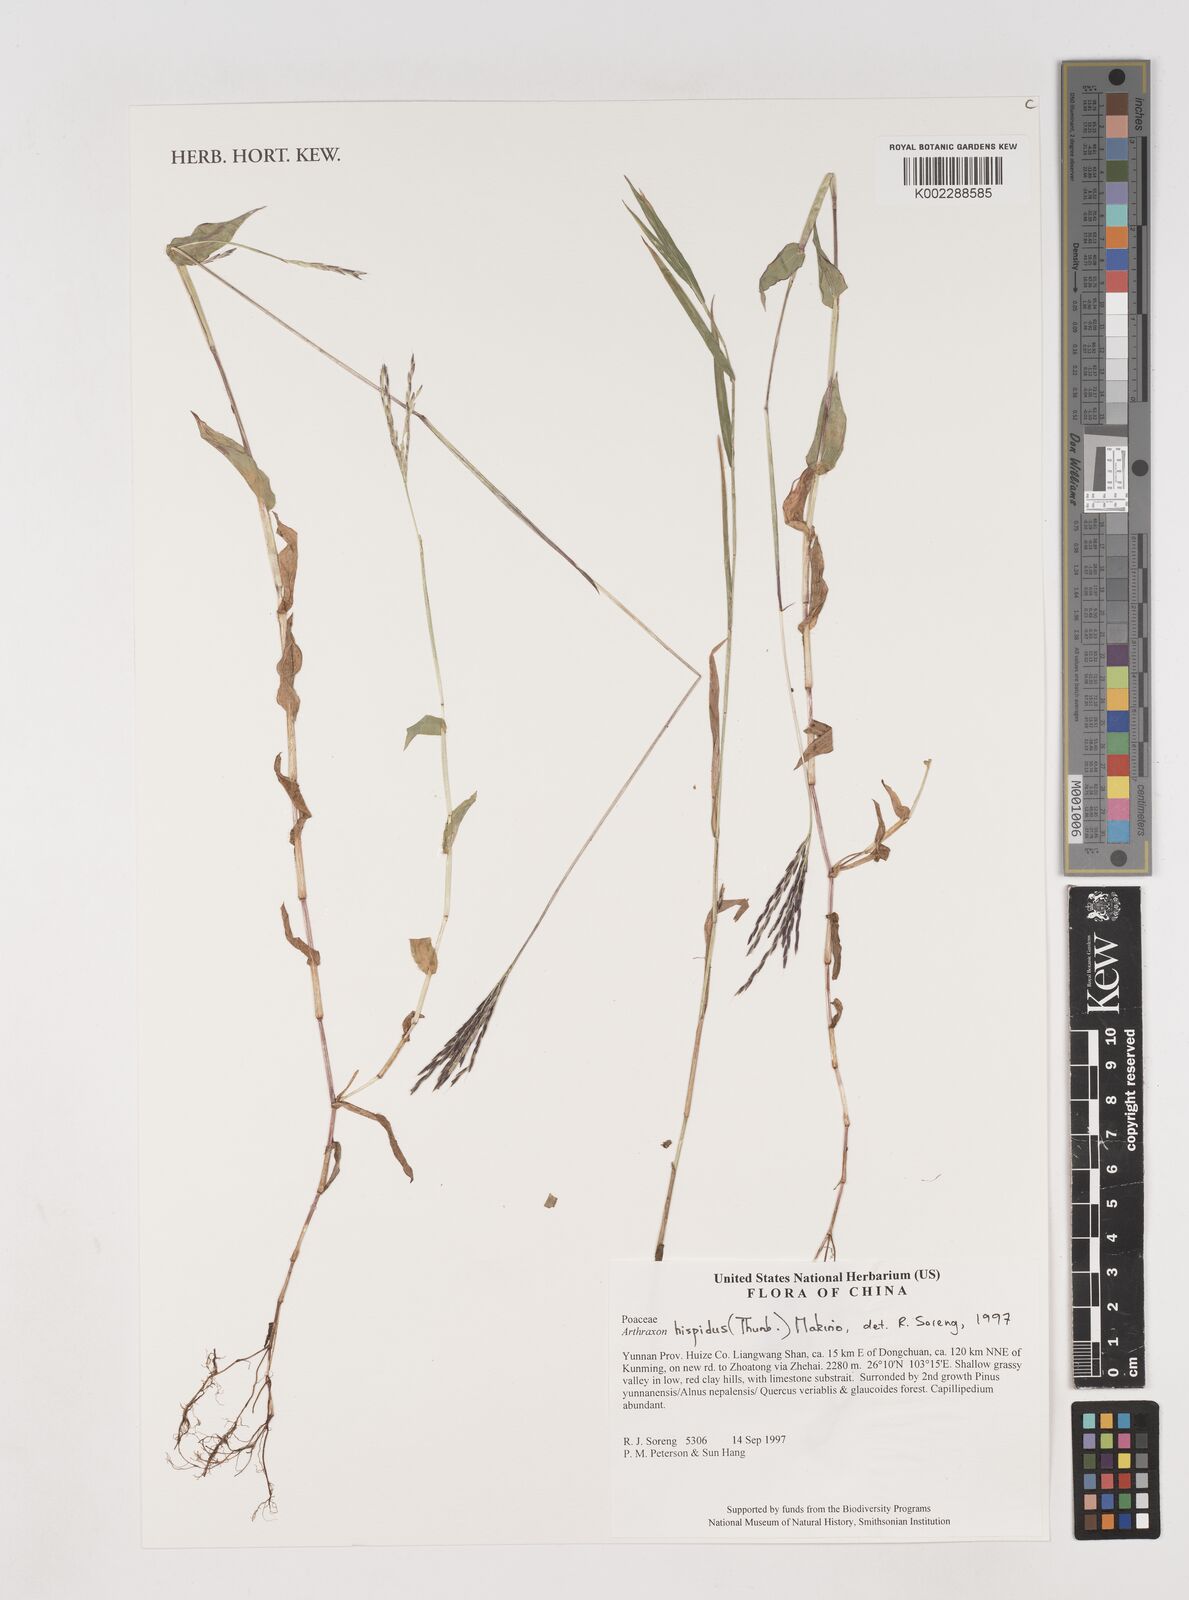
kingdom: Plantae
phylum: Tracheophyta
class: Liliopsida
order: Poales
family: Poaceae
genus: Arthraxon
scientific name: Arthraxon hispidus
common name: Small carpgrass
